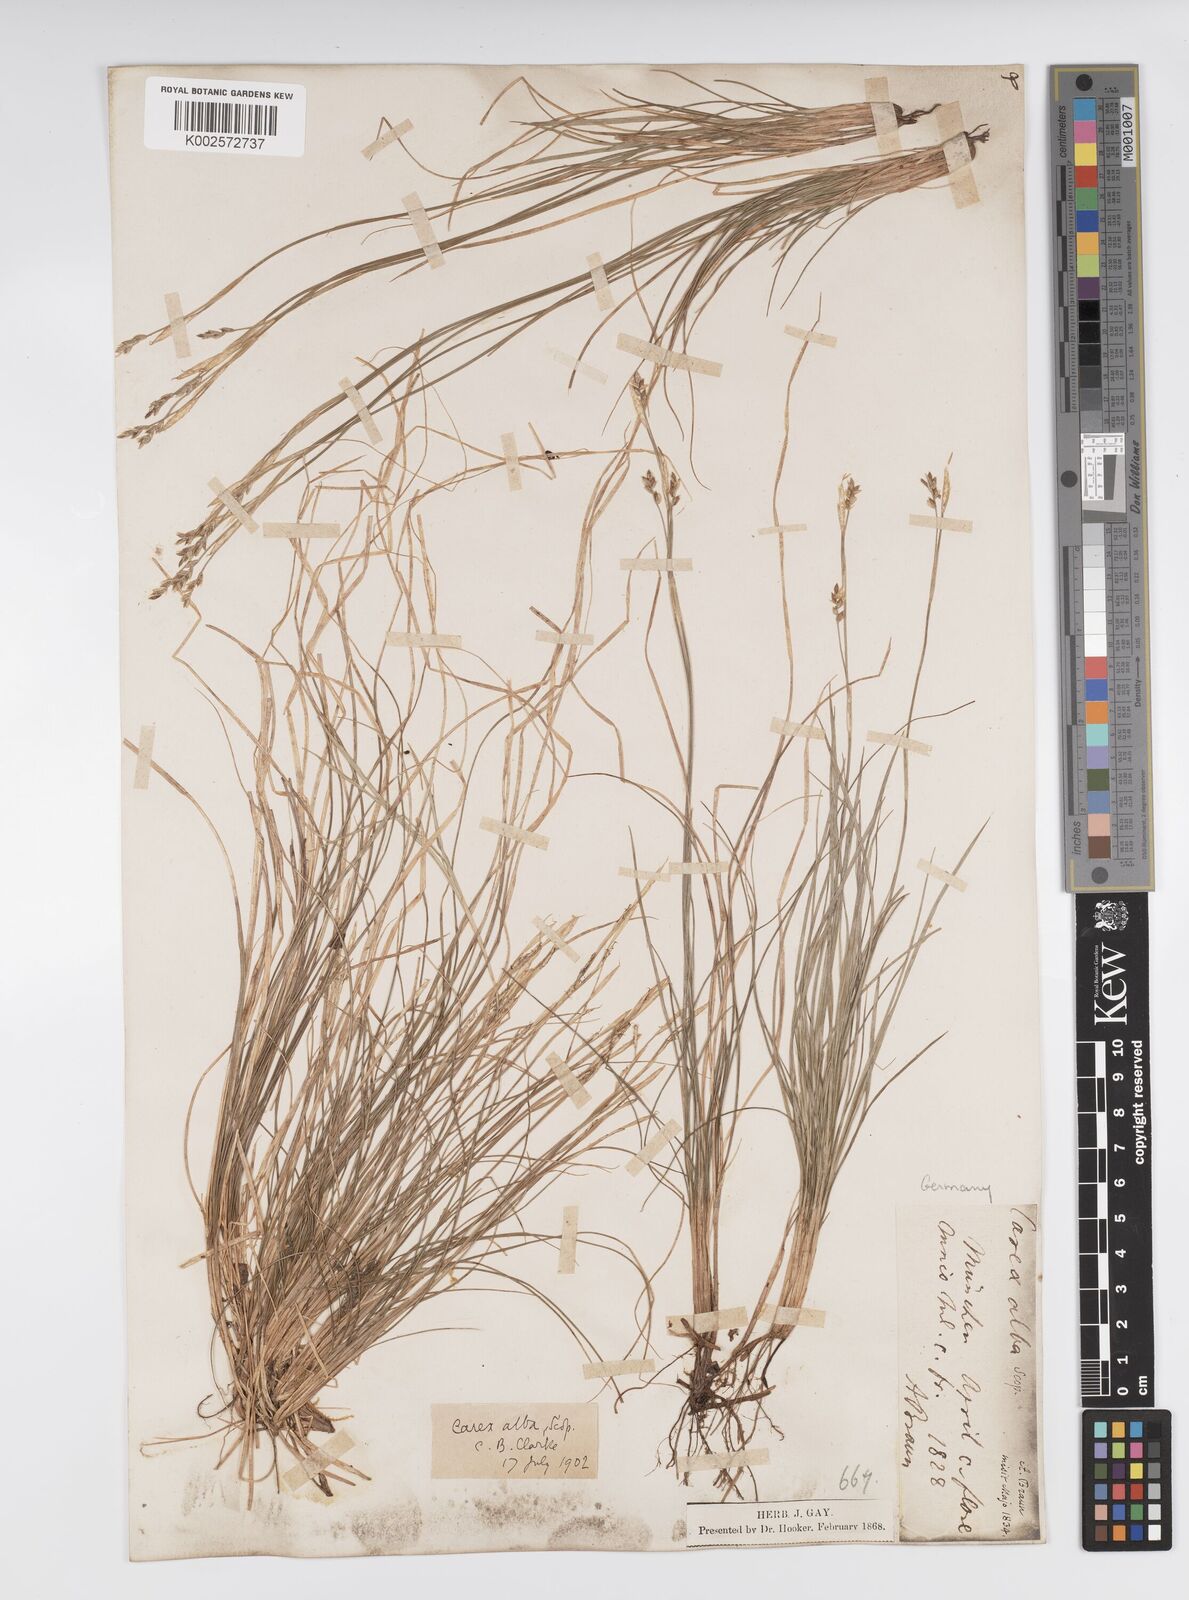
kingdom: Plantae
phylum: Tracheophyta
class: Liliopsida
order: Poales
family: Cyperaceae
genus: Carex
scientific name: Carex alba
